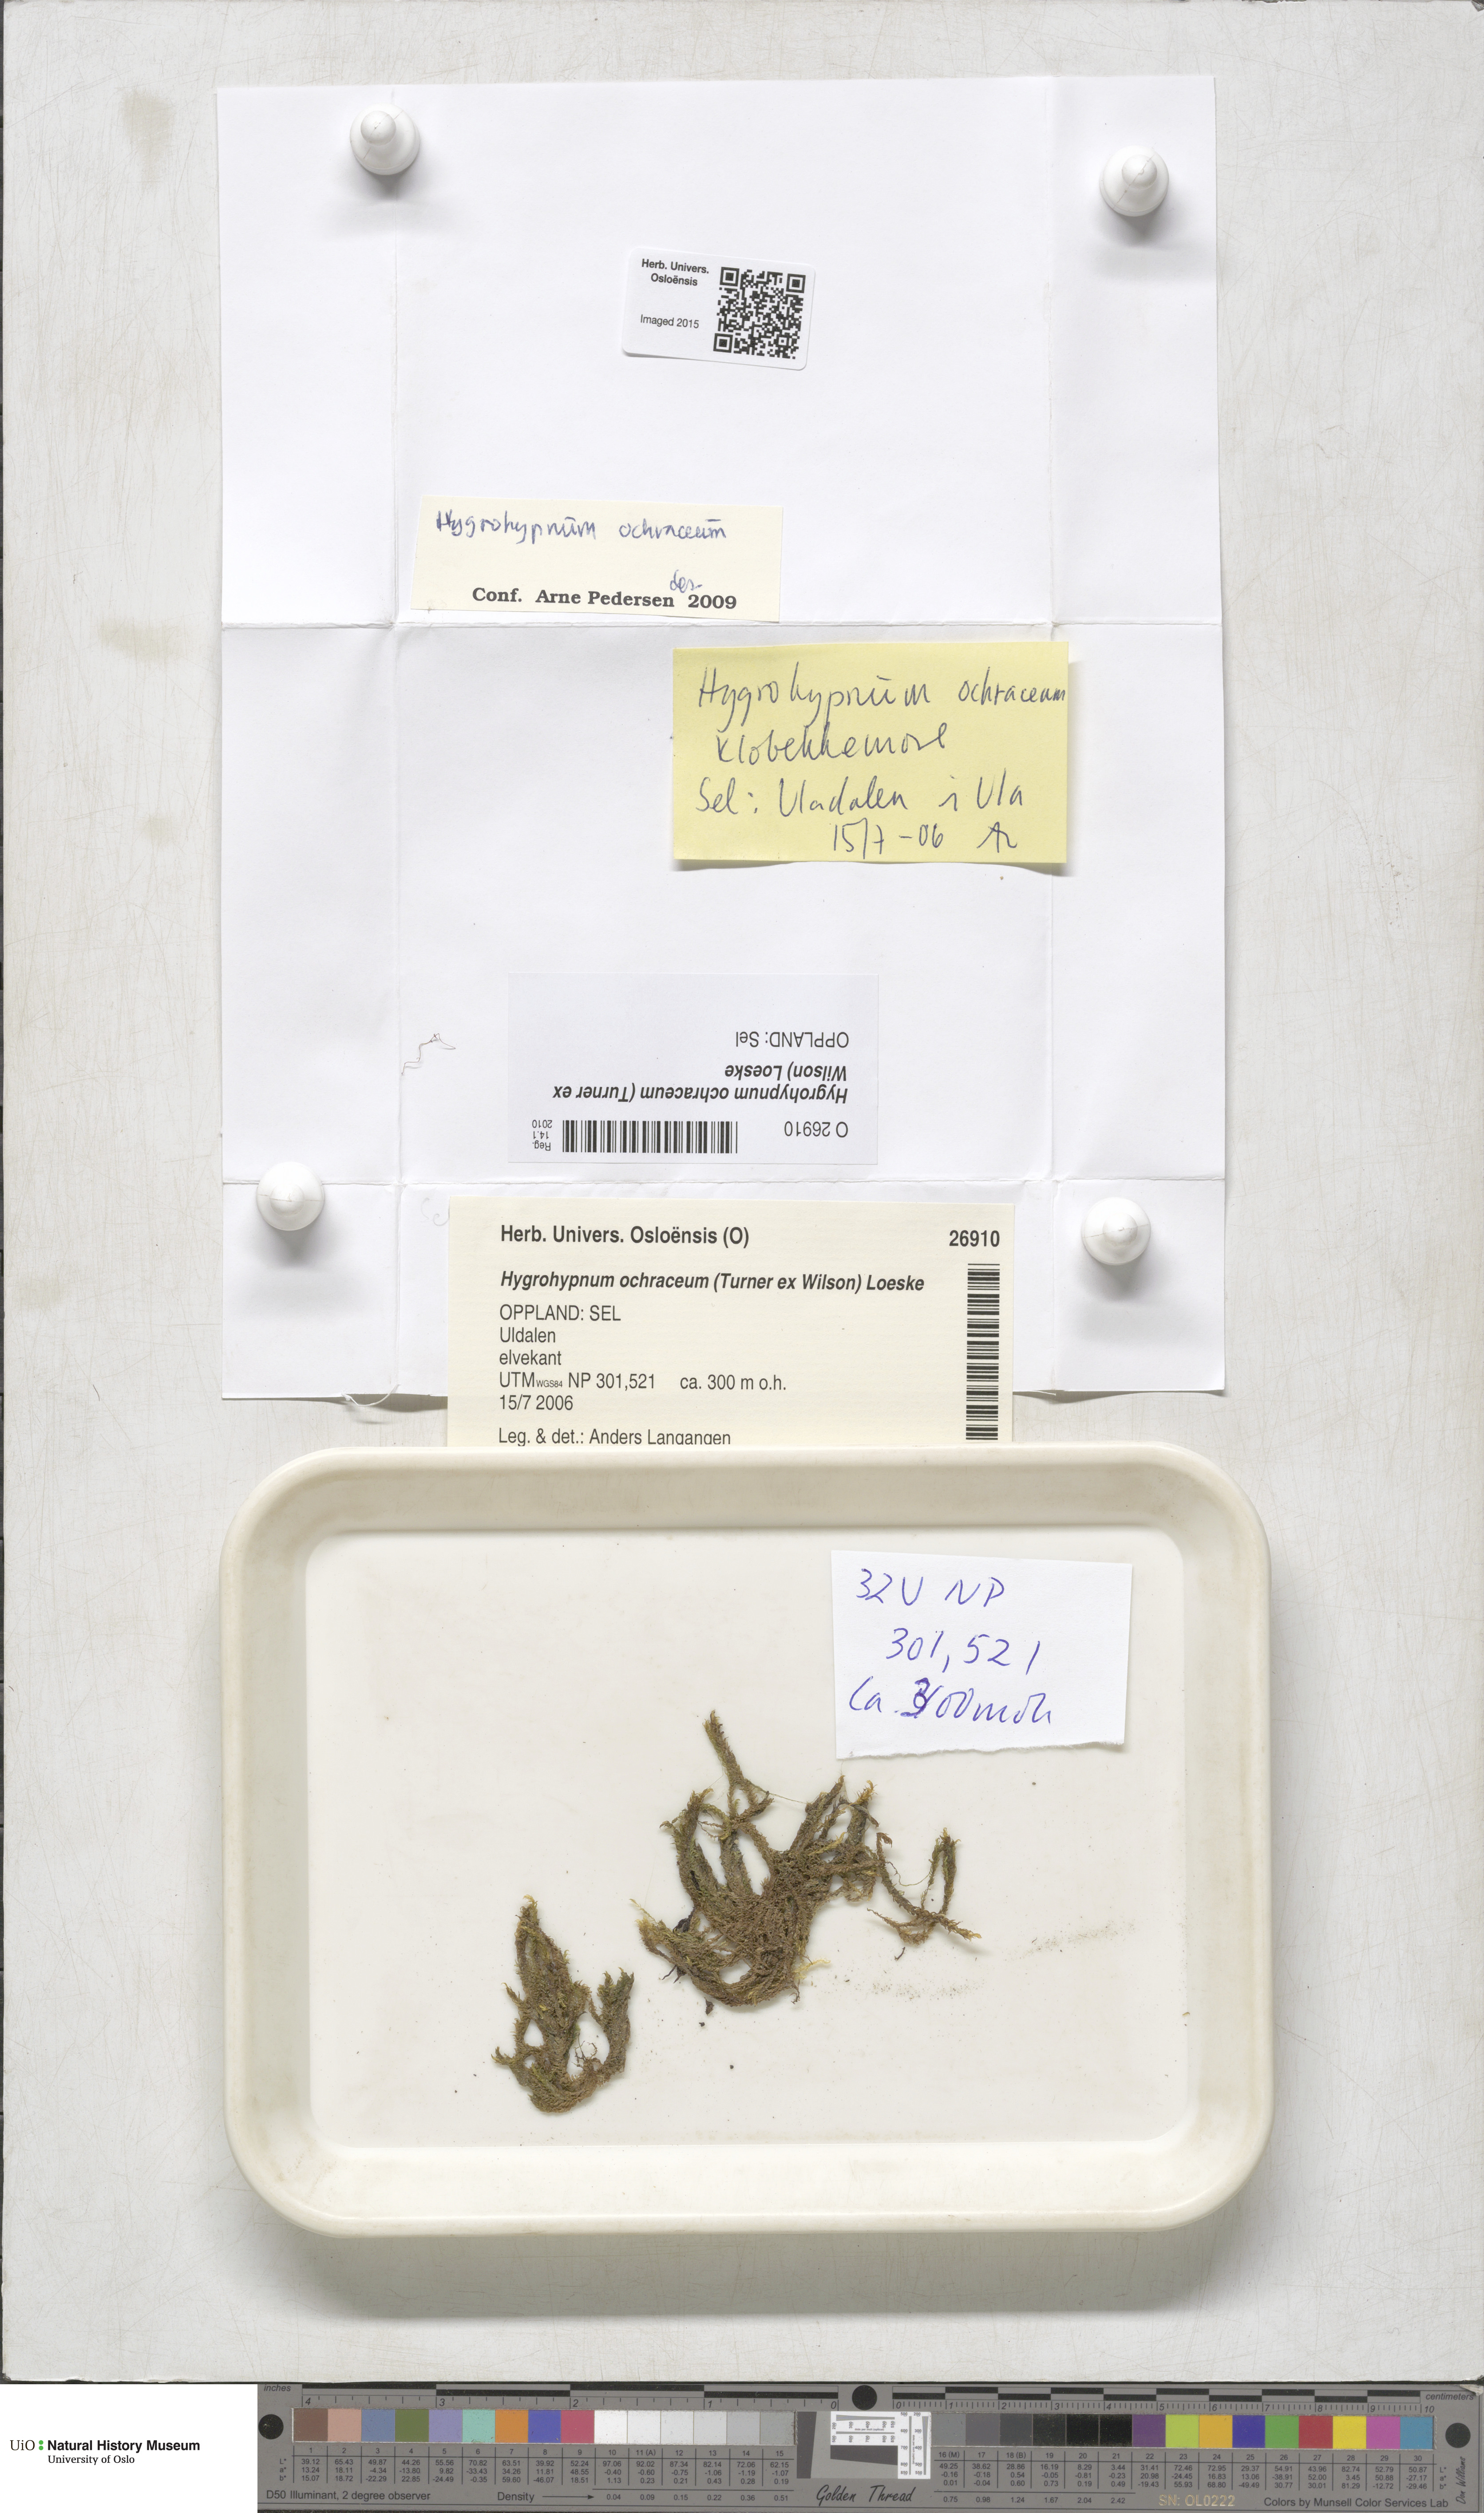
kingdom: Plantae
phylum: Bryophyta
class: Bryopsida
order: Hypnales
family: Scorpidiaceae
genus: Hygrohypnella
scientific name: Hygrohypnella ochracea
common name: Hygrohypnum moss
